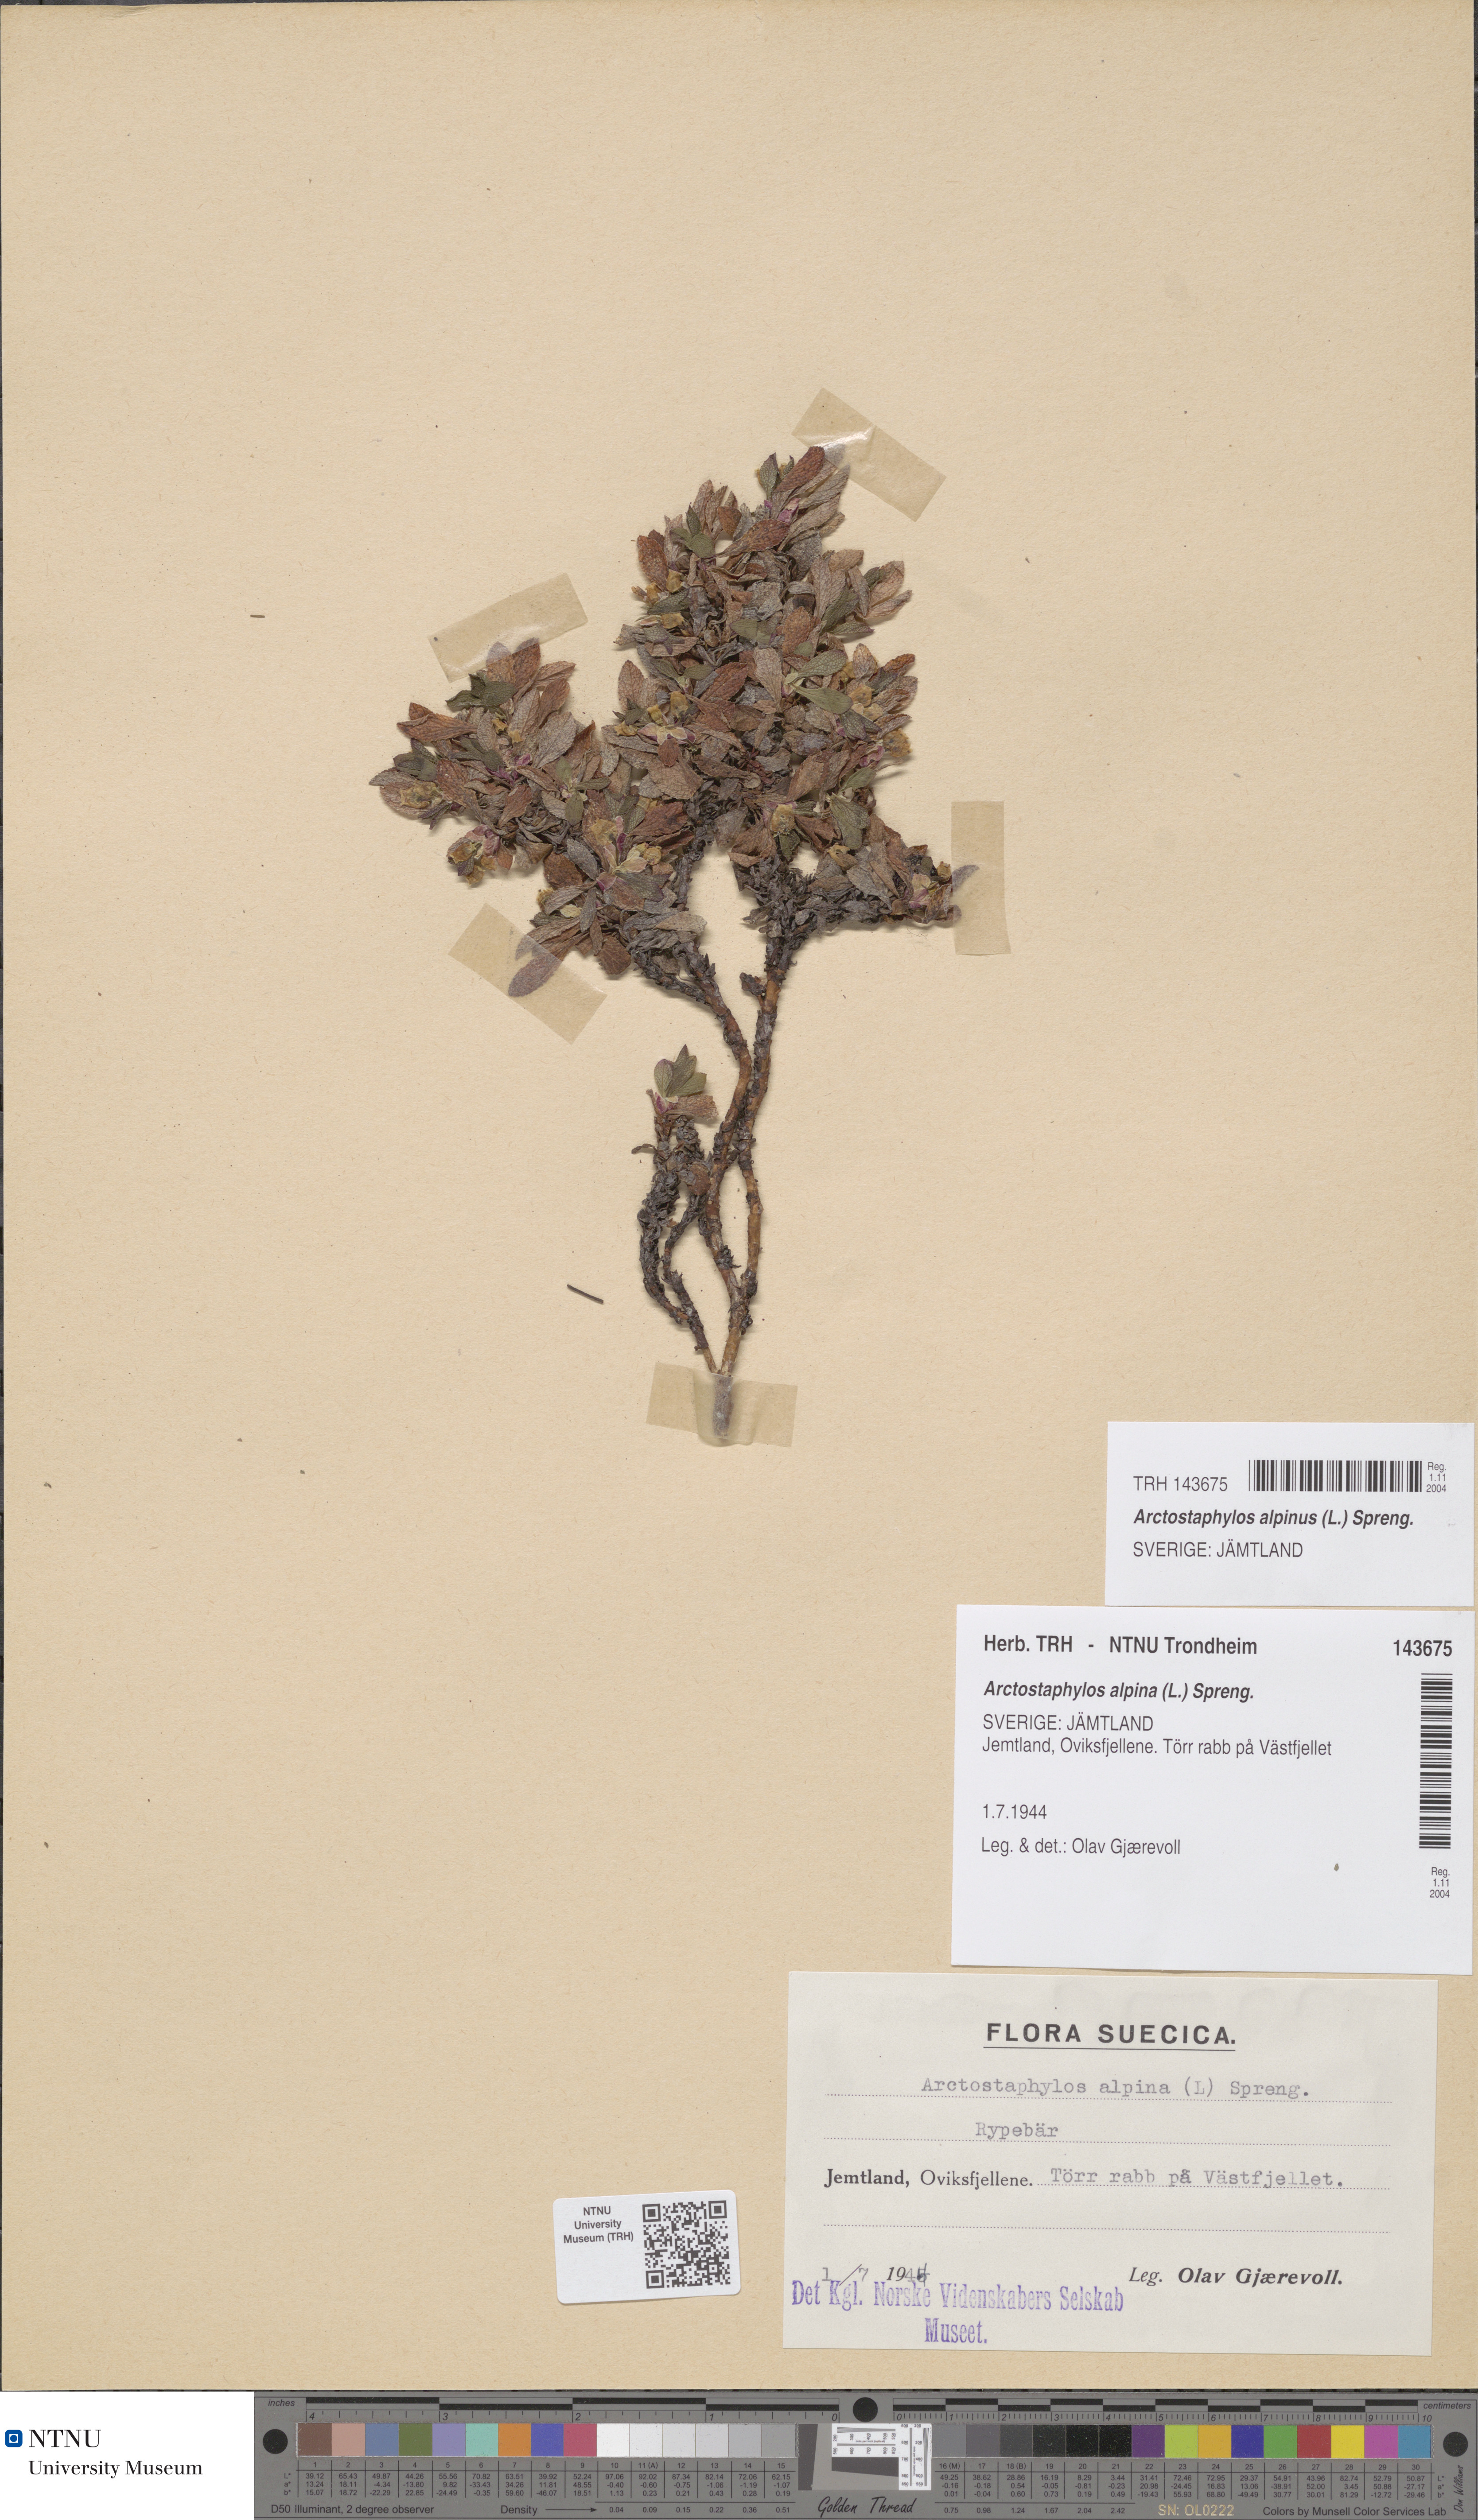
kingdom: Plantae
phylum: Tracheophyta
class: Magnoliopsida
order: Ericales
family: Ericaceae
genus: Arctostaphylos
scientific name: Arctostaphylos alpinus
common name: Alpine bearberry
